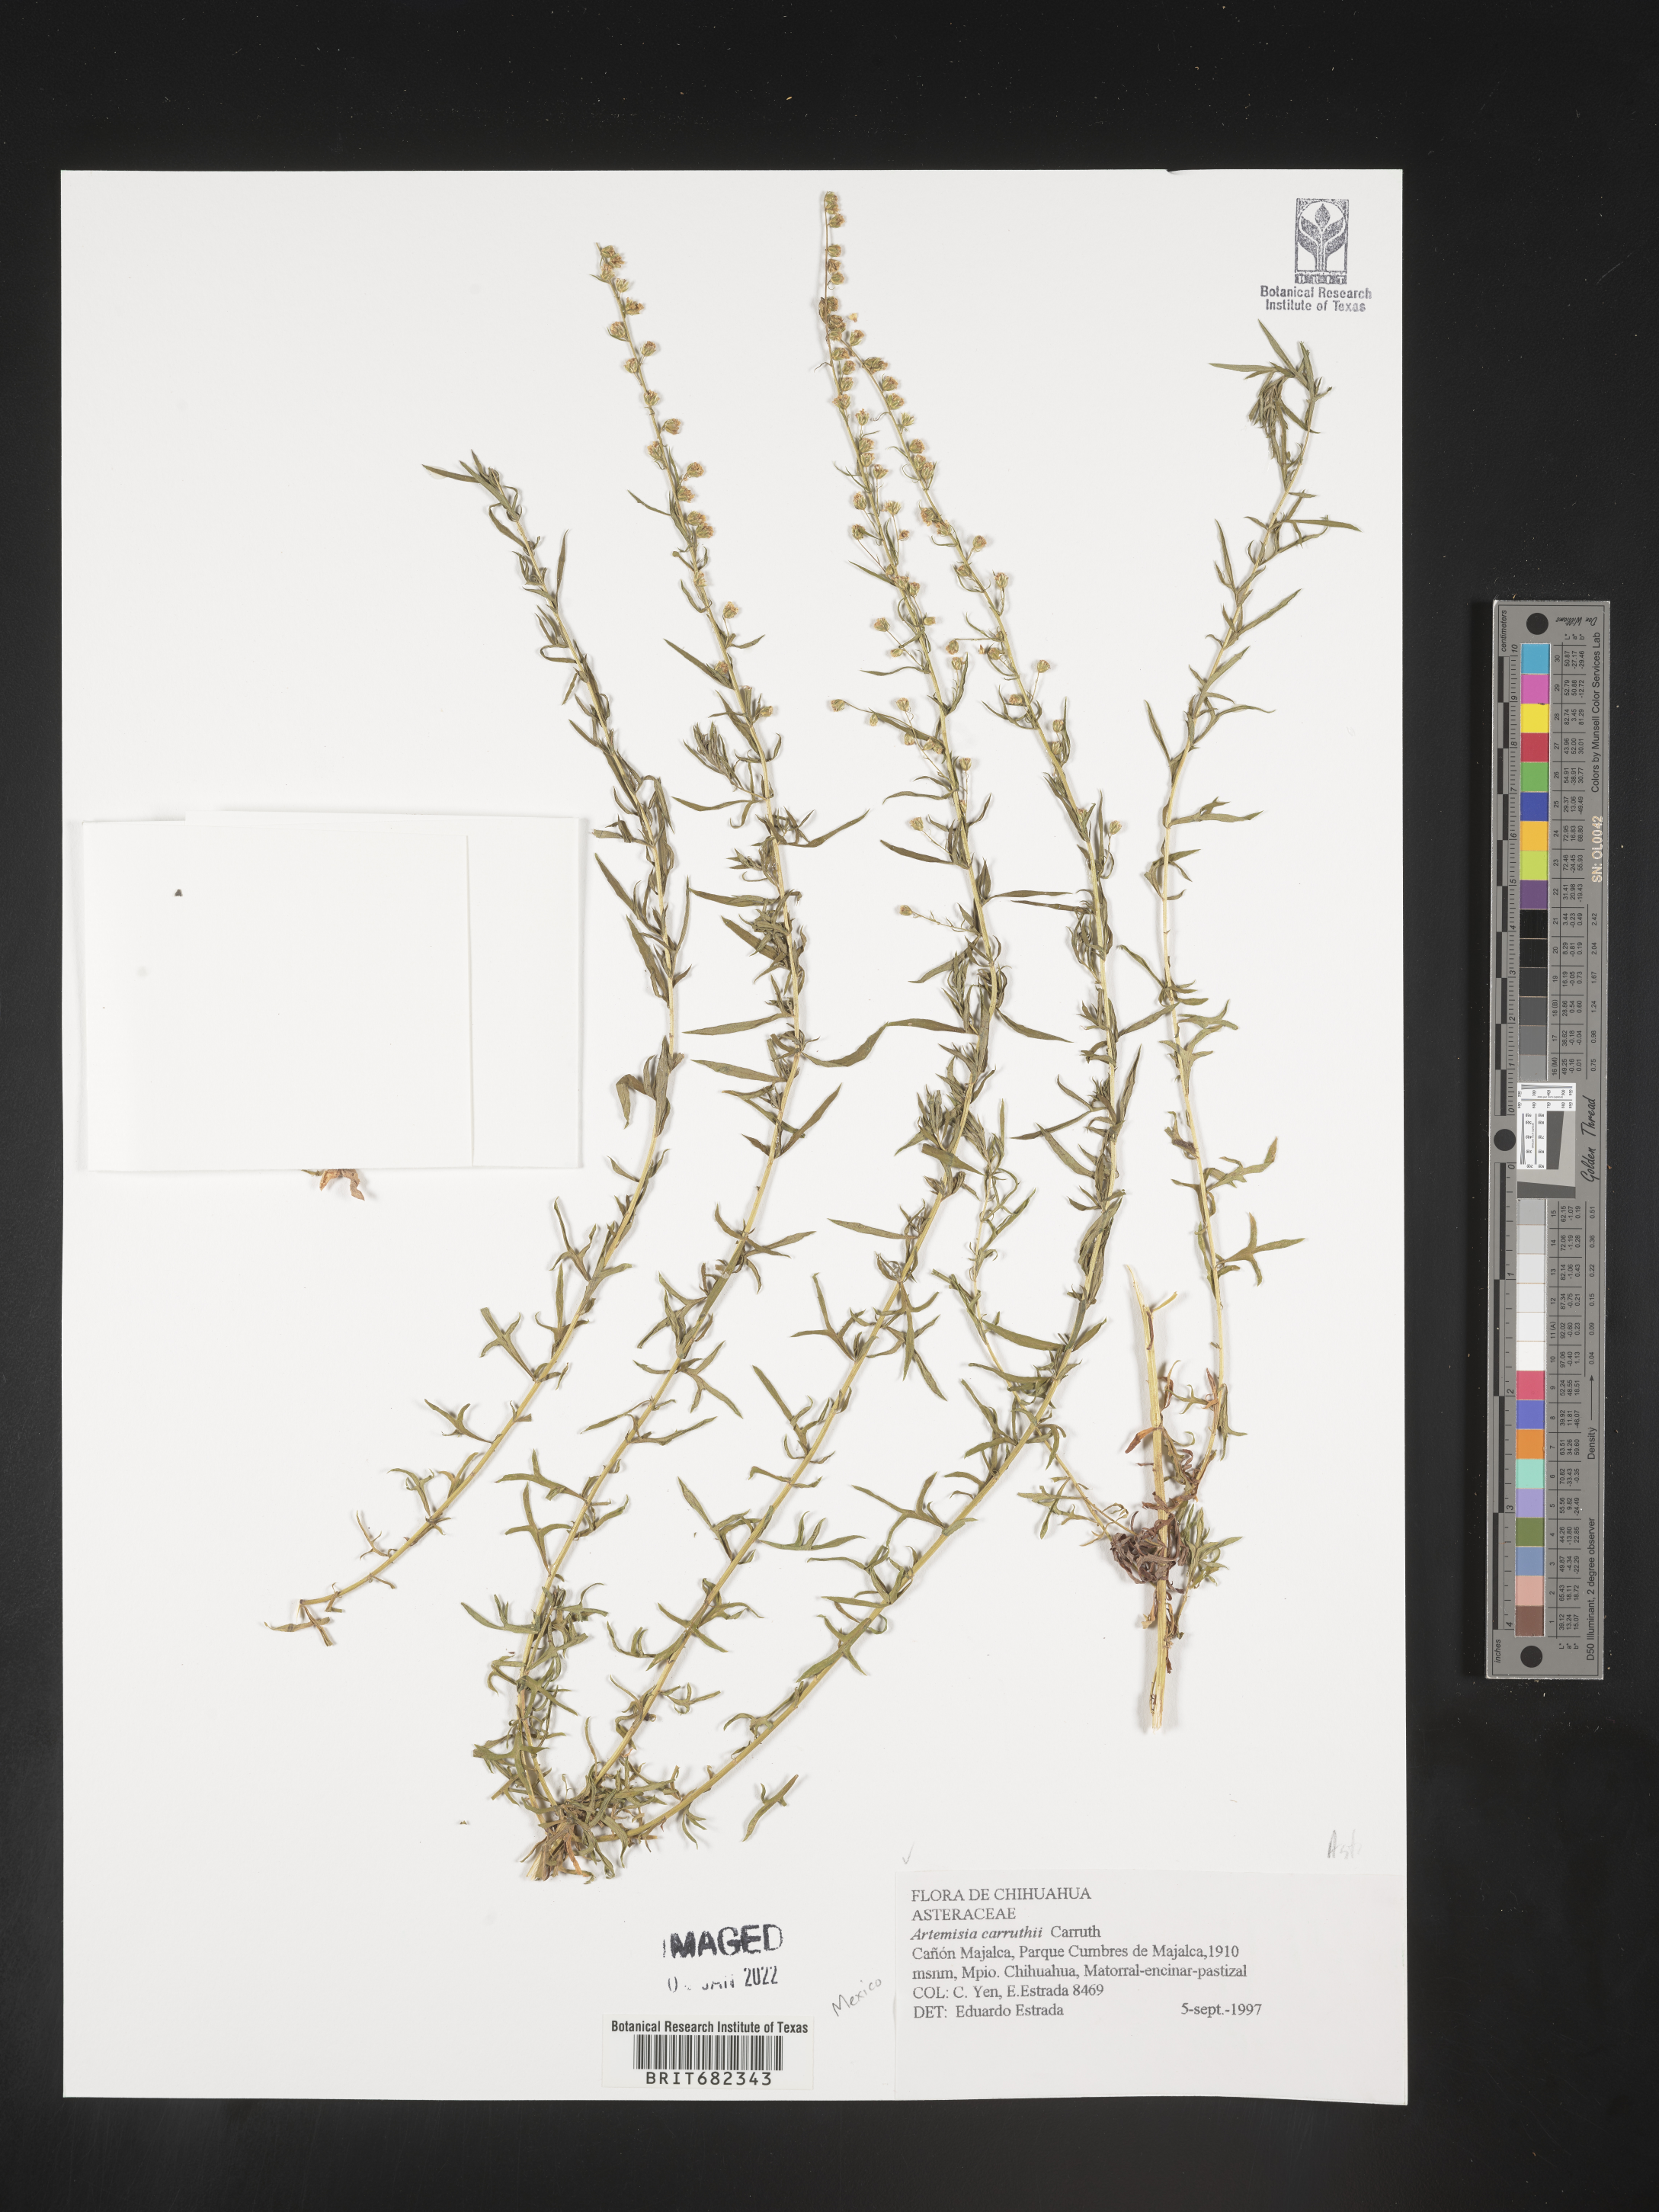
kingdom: Plantae
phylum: Tracheophyta
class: Magnoliopsida
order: Asterales
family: Asteraceae
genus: Artemisia
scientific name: Artemisia
